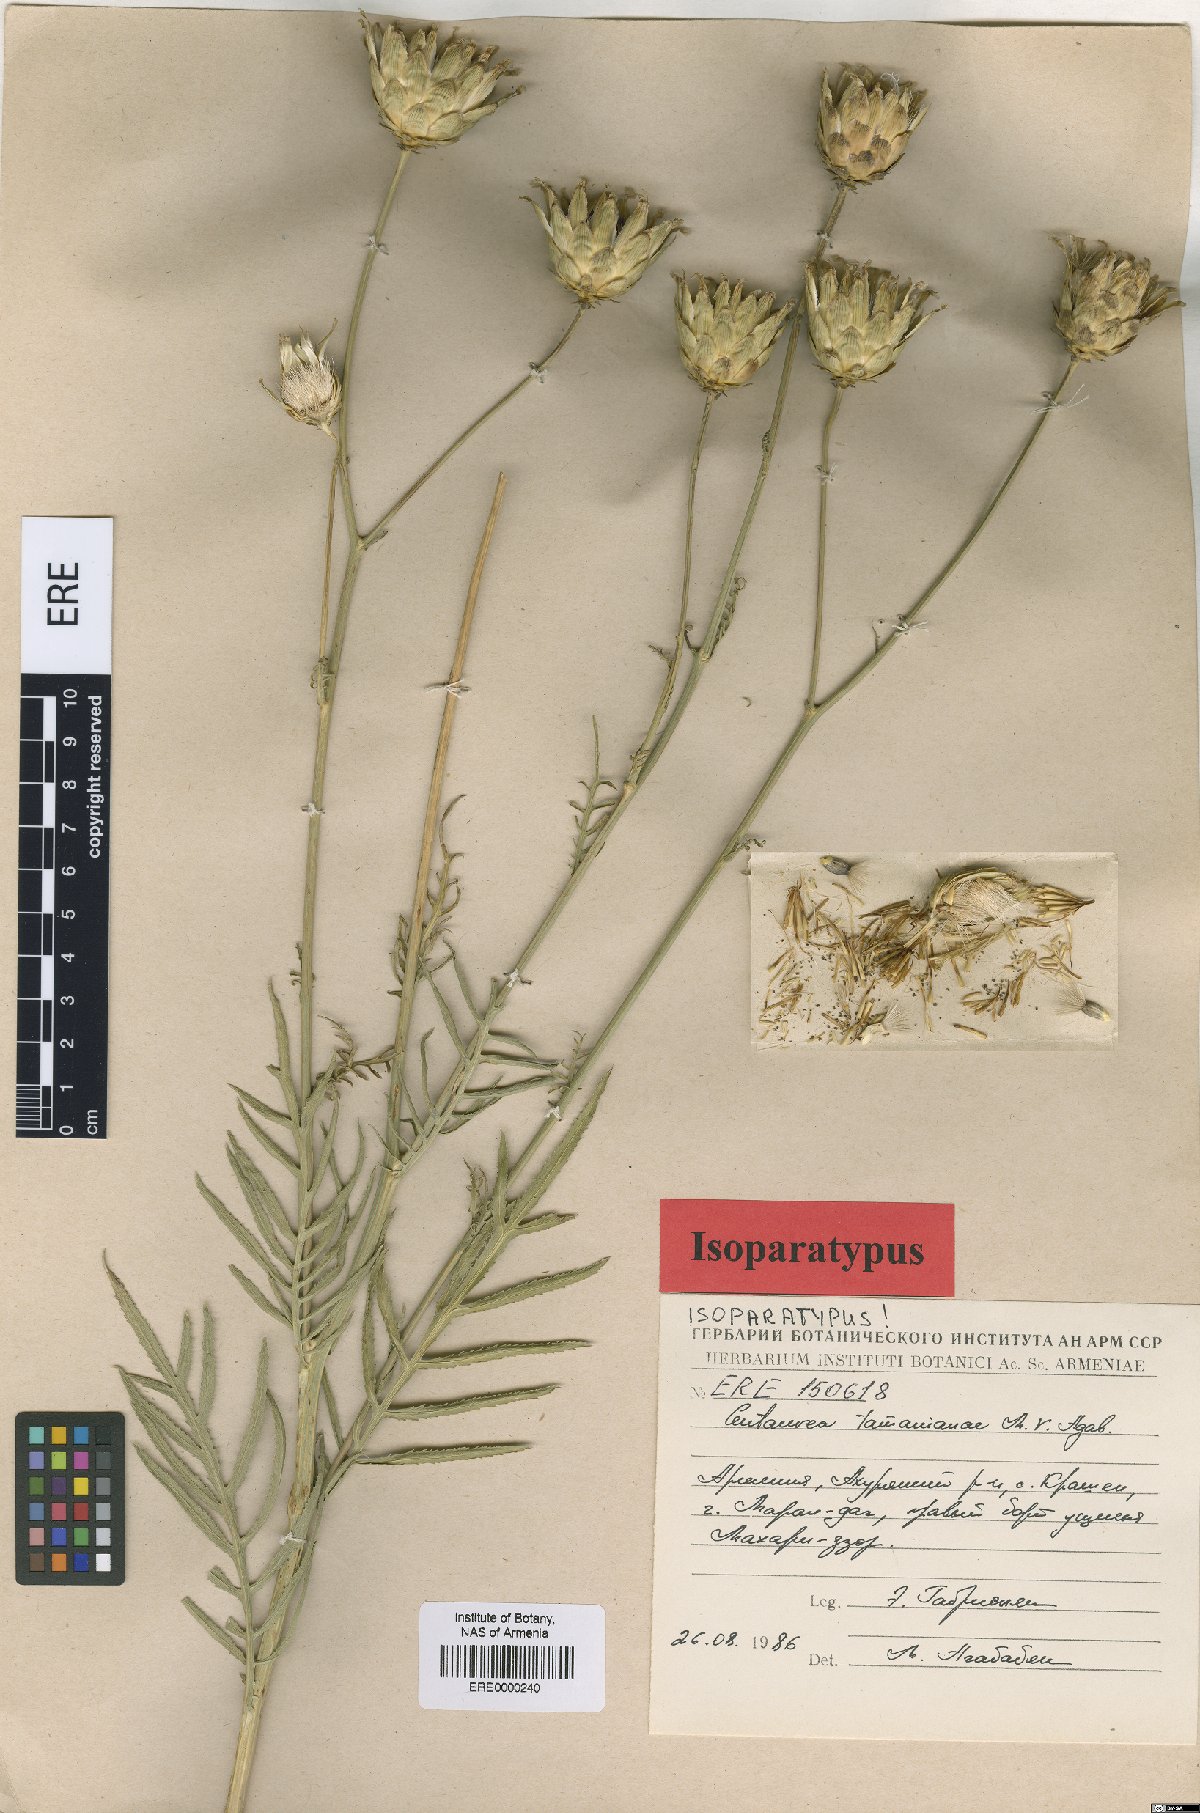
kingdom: Plantae
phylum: Tracheophyta
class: Magnoliopsida
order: Asterales
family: Asteraceae
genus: Rhaponticoides
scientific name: Rhaponticoides tamanianae
